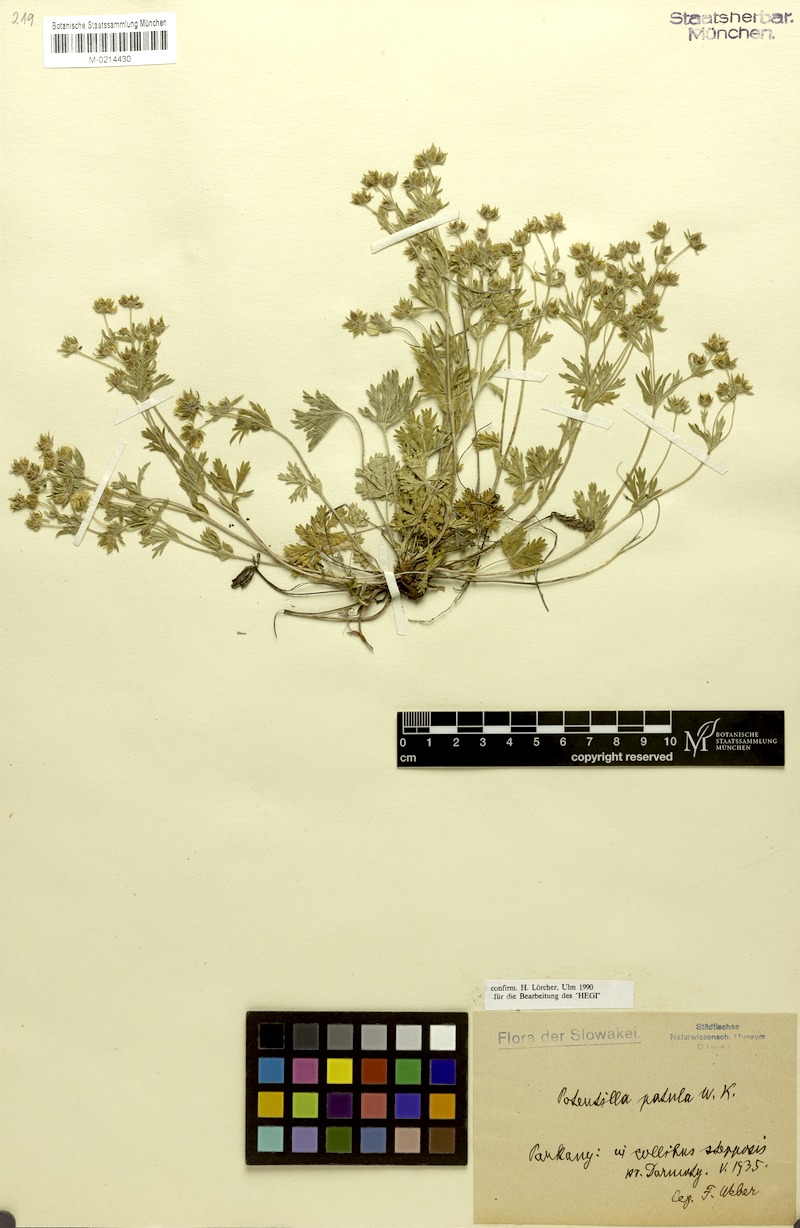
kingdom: Plantae
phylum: Tracheophyta
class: Magnoliopsida
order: Rosales
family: Rosaceae
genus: Potentilla
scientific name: Potentilla patula
